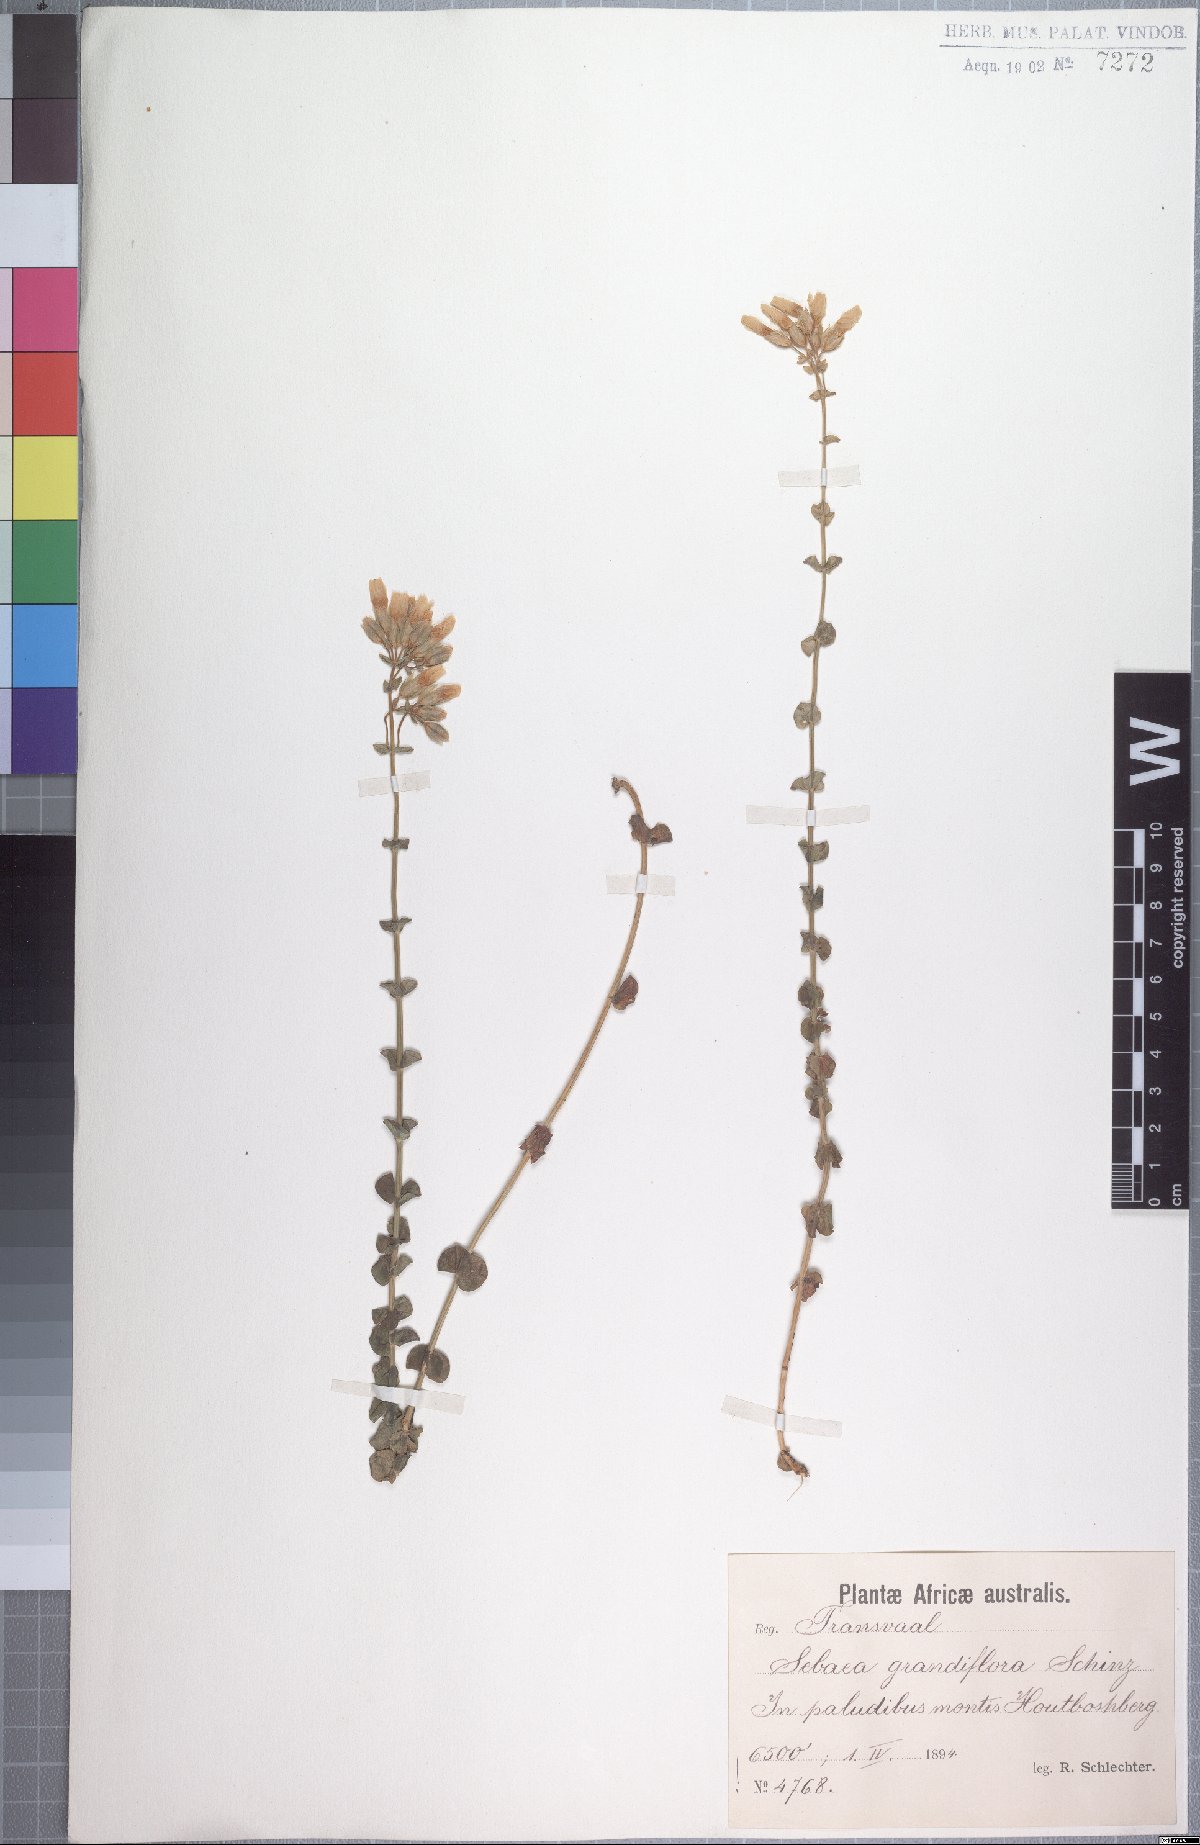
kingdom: Plantae
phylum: Tracheophyta
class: Magnoliopsida
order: Gentianales
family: Gentianaceae
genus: Sebaea
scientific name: Sebaea longicaulis
